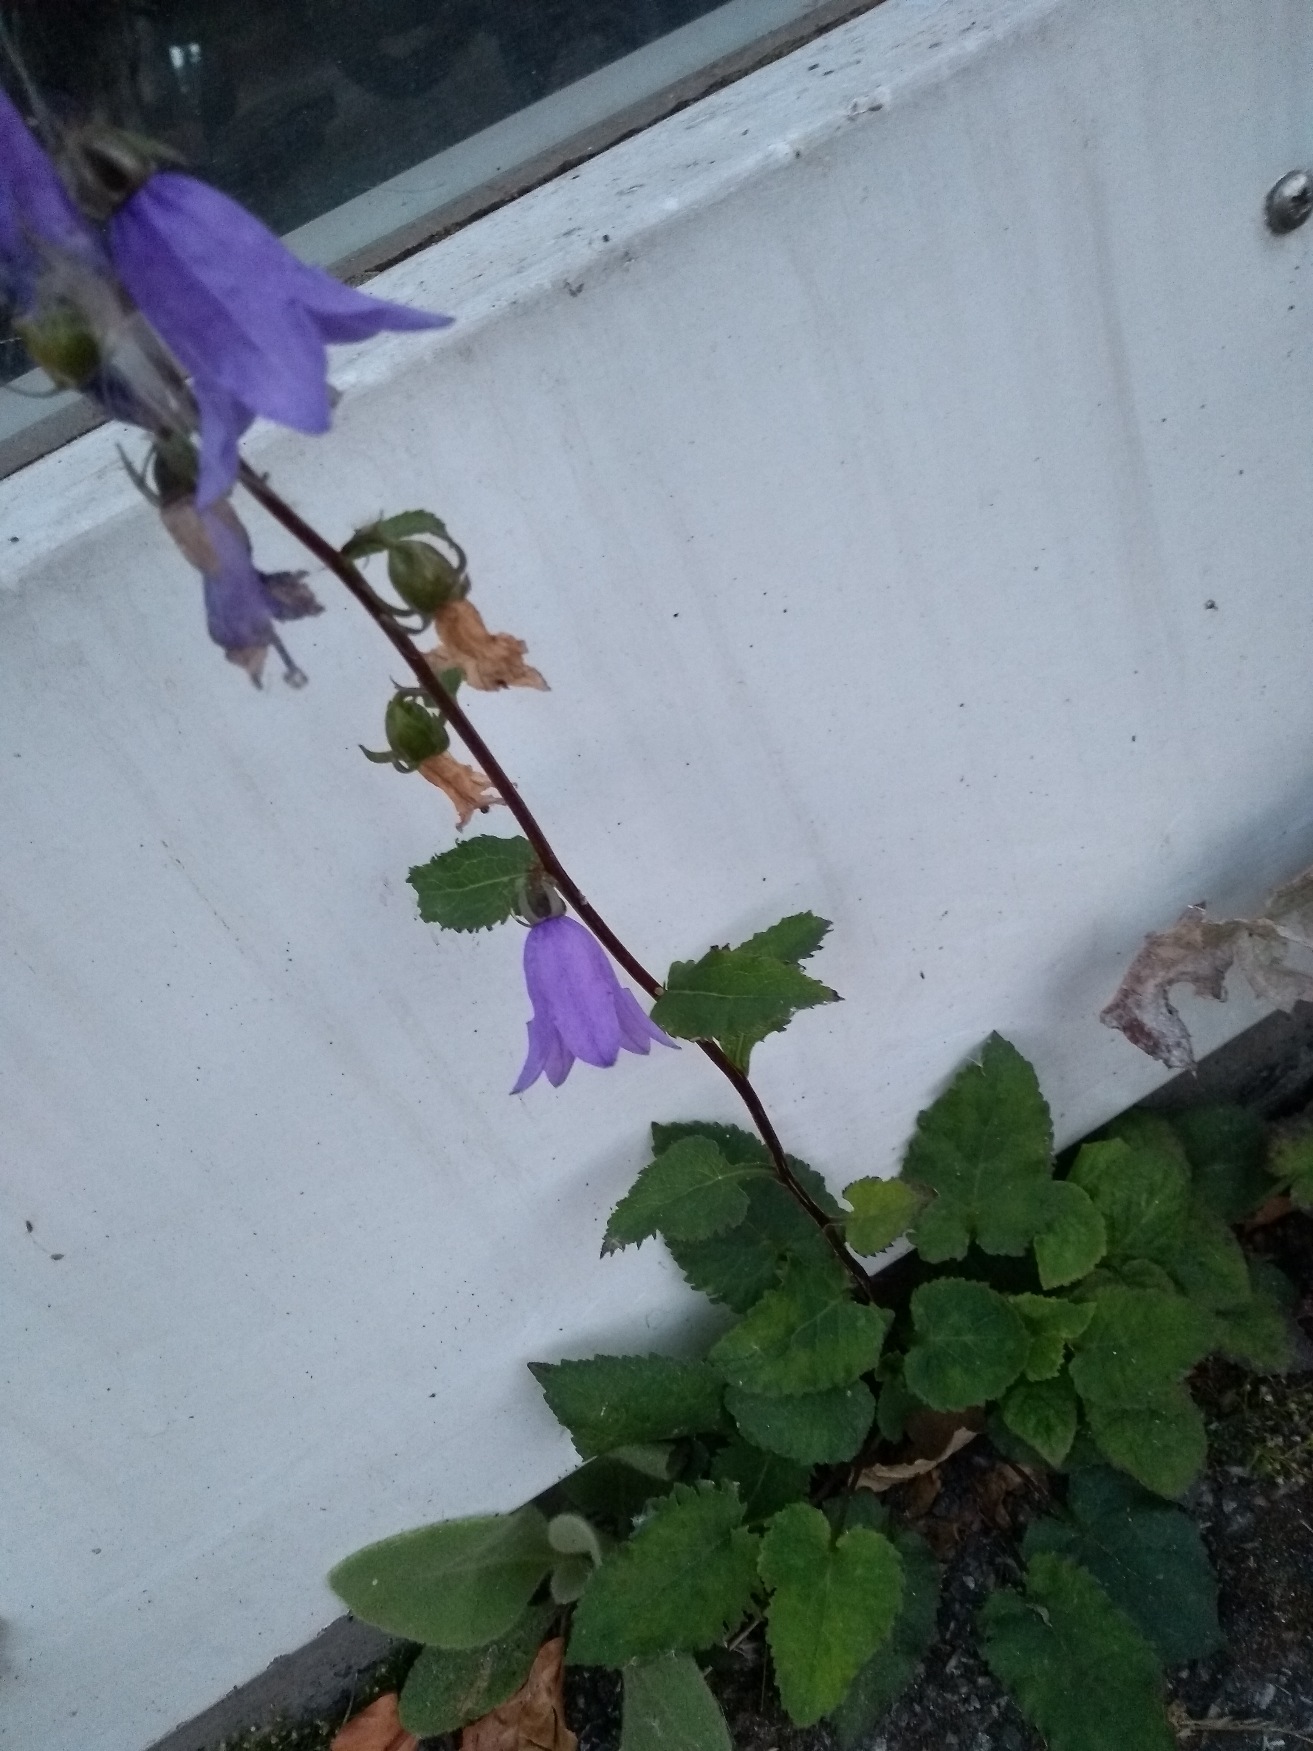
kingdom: Plantae
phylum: Tracheophyta
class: Magnoliopsida
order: Asterales
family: Campanulaceae
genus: Campanula
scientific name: Campanula rapunculoides
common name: Ensidig klokke
